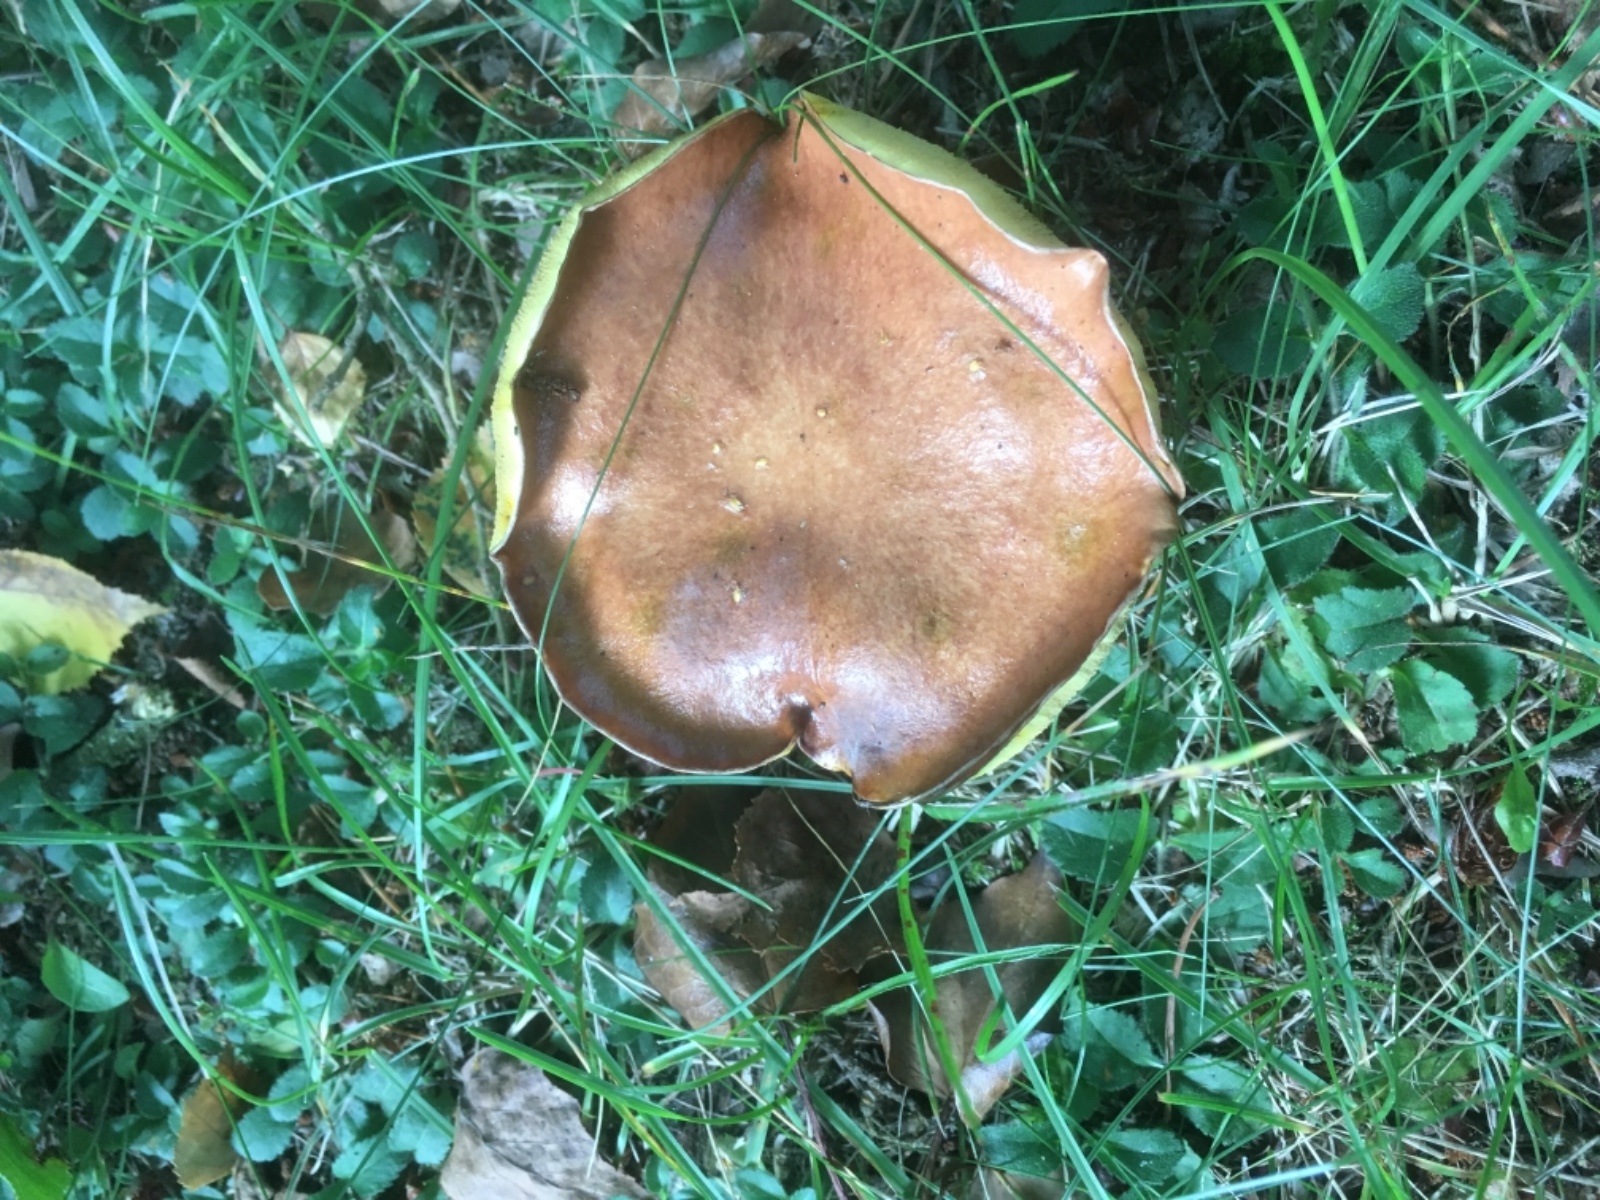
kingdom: Fungi
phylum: Basidiomycota
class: Agaricomycetes
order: Boletales
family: Suillaceae
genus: Suillus
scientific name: Suillus granulatus
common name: kornet slimrørhat
